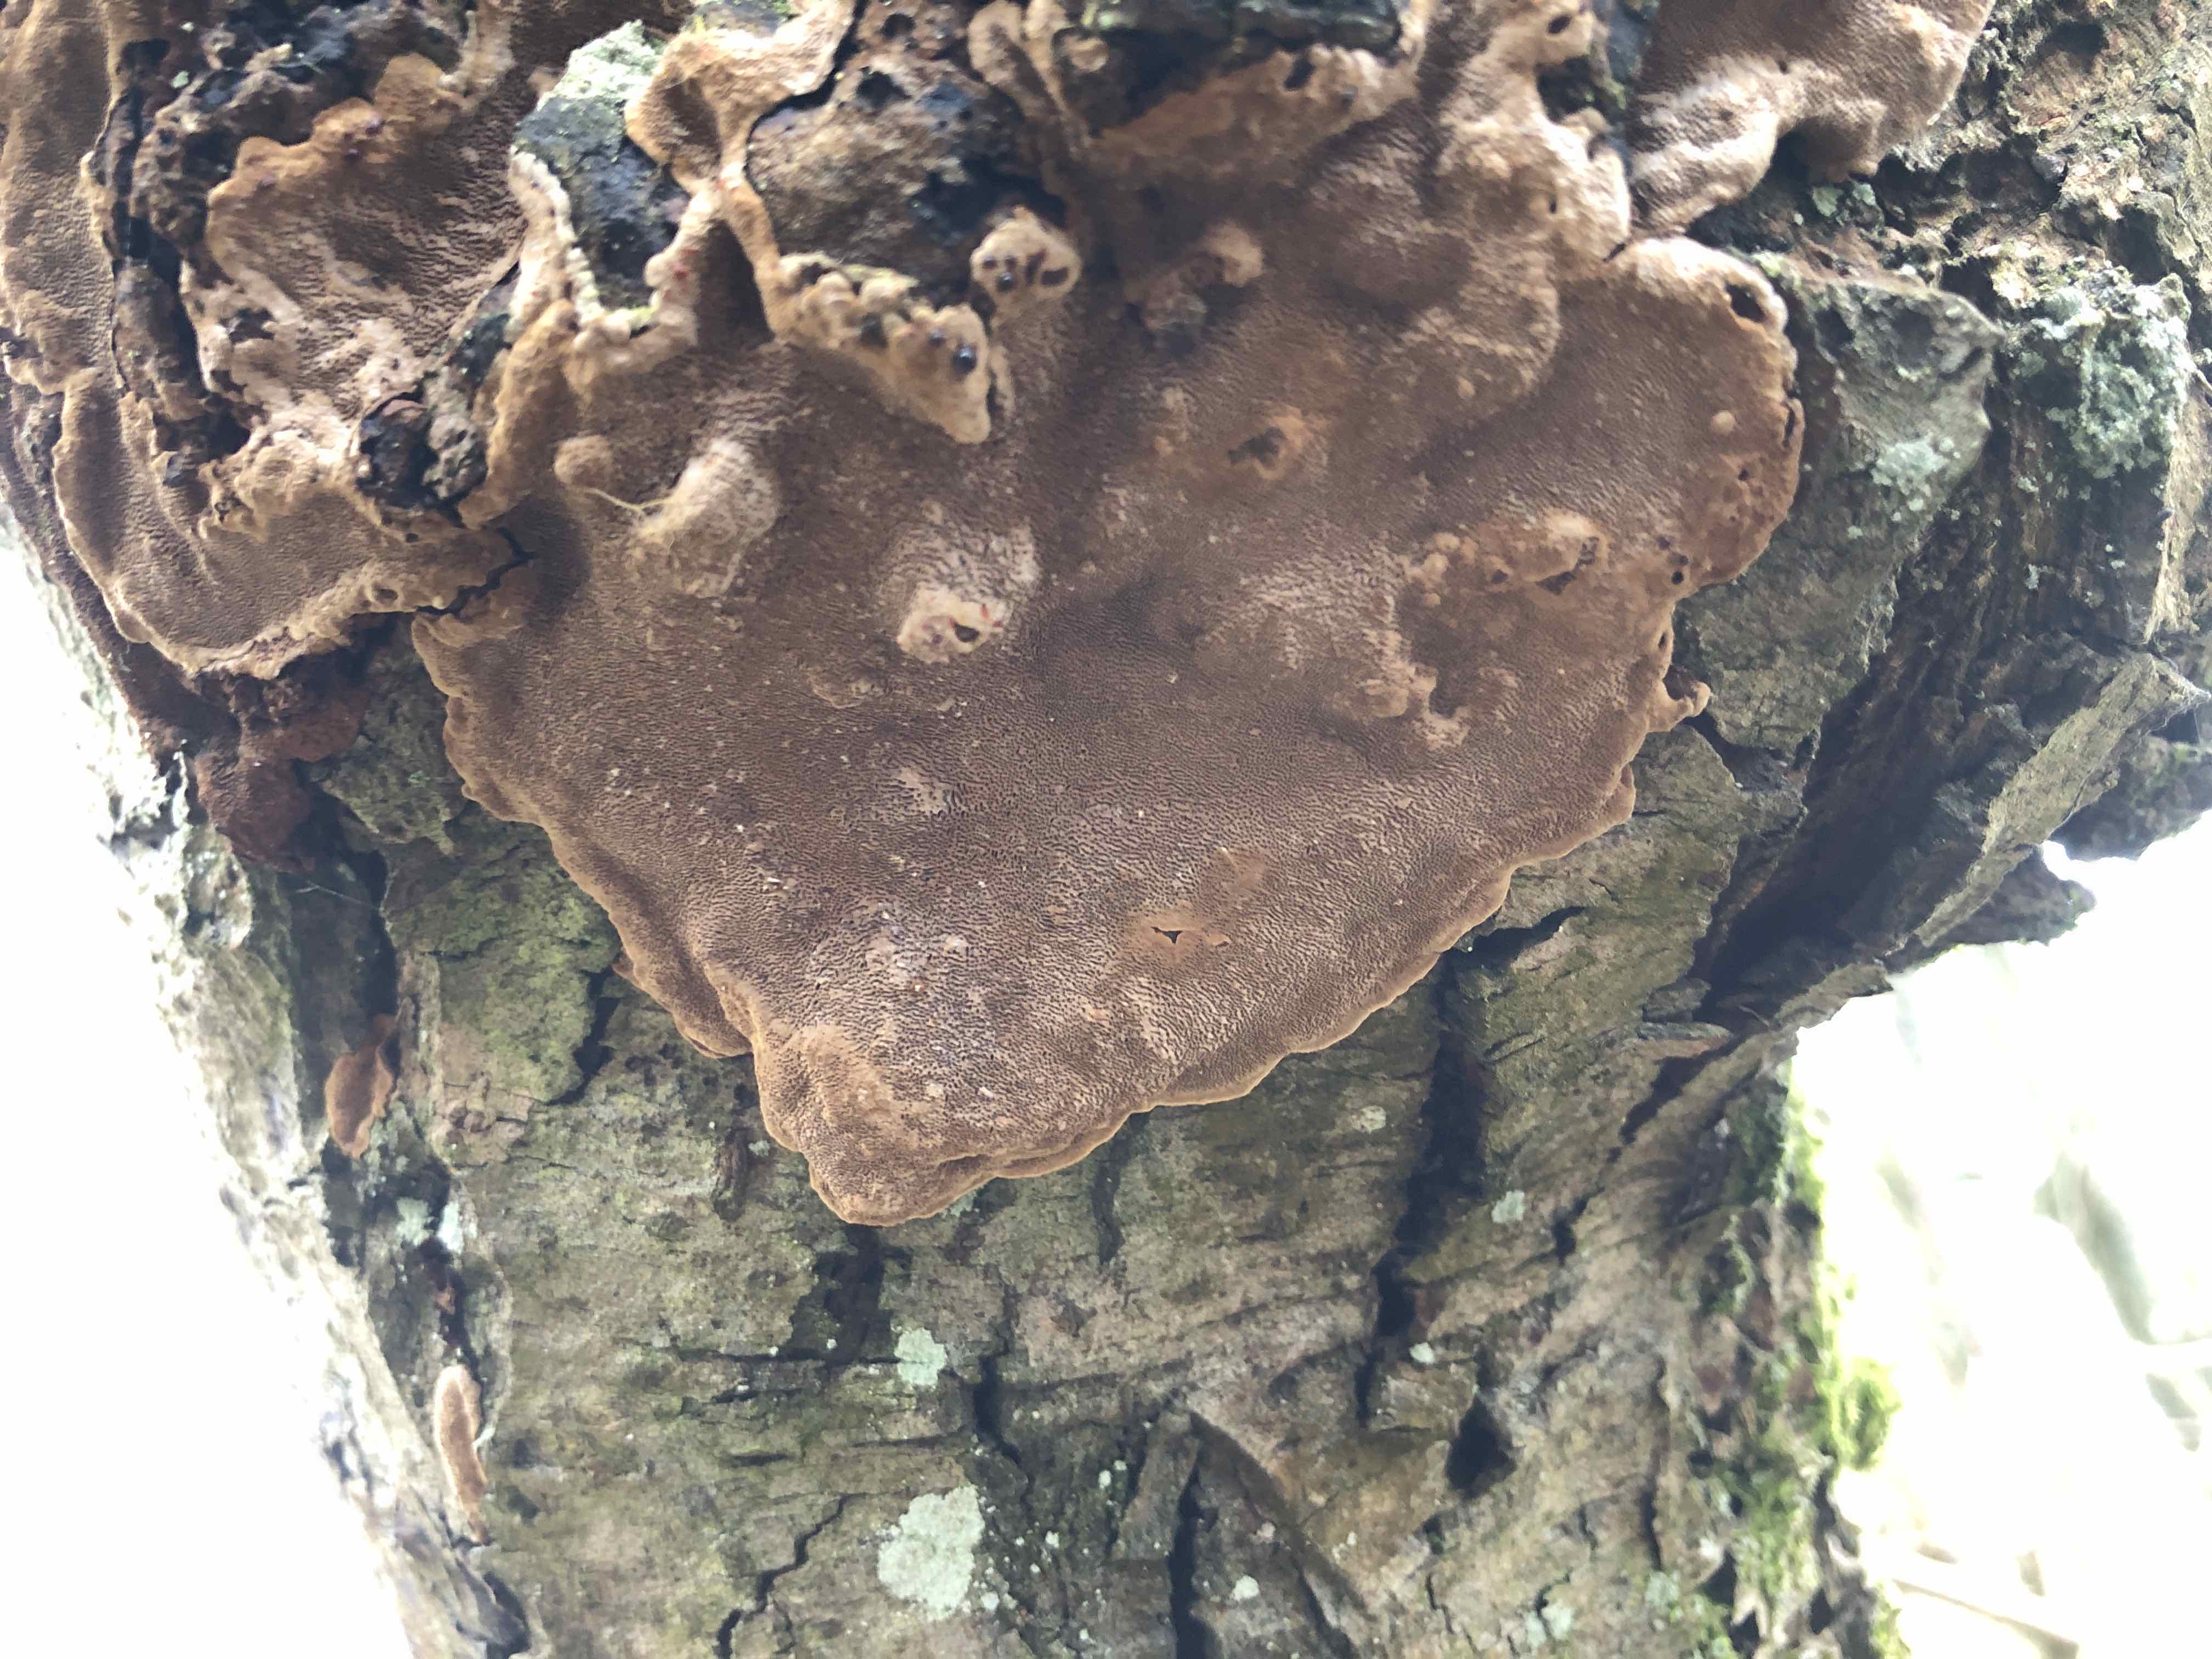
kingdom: Fungi
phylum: Basidiomycota
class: Agaricomycetes
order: Hymenochaetales
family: Hymenochaetaceae
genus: Phellinopsis
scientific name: Phellinopsis conchata
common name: pile-ildporesvamp
